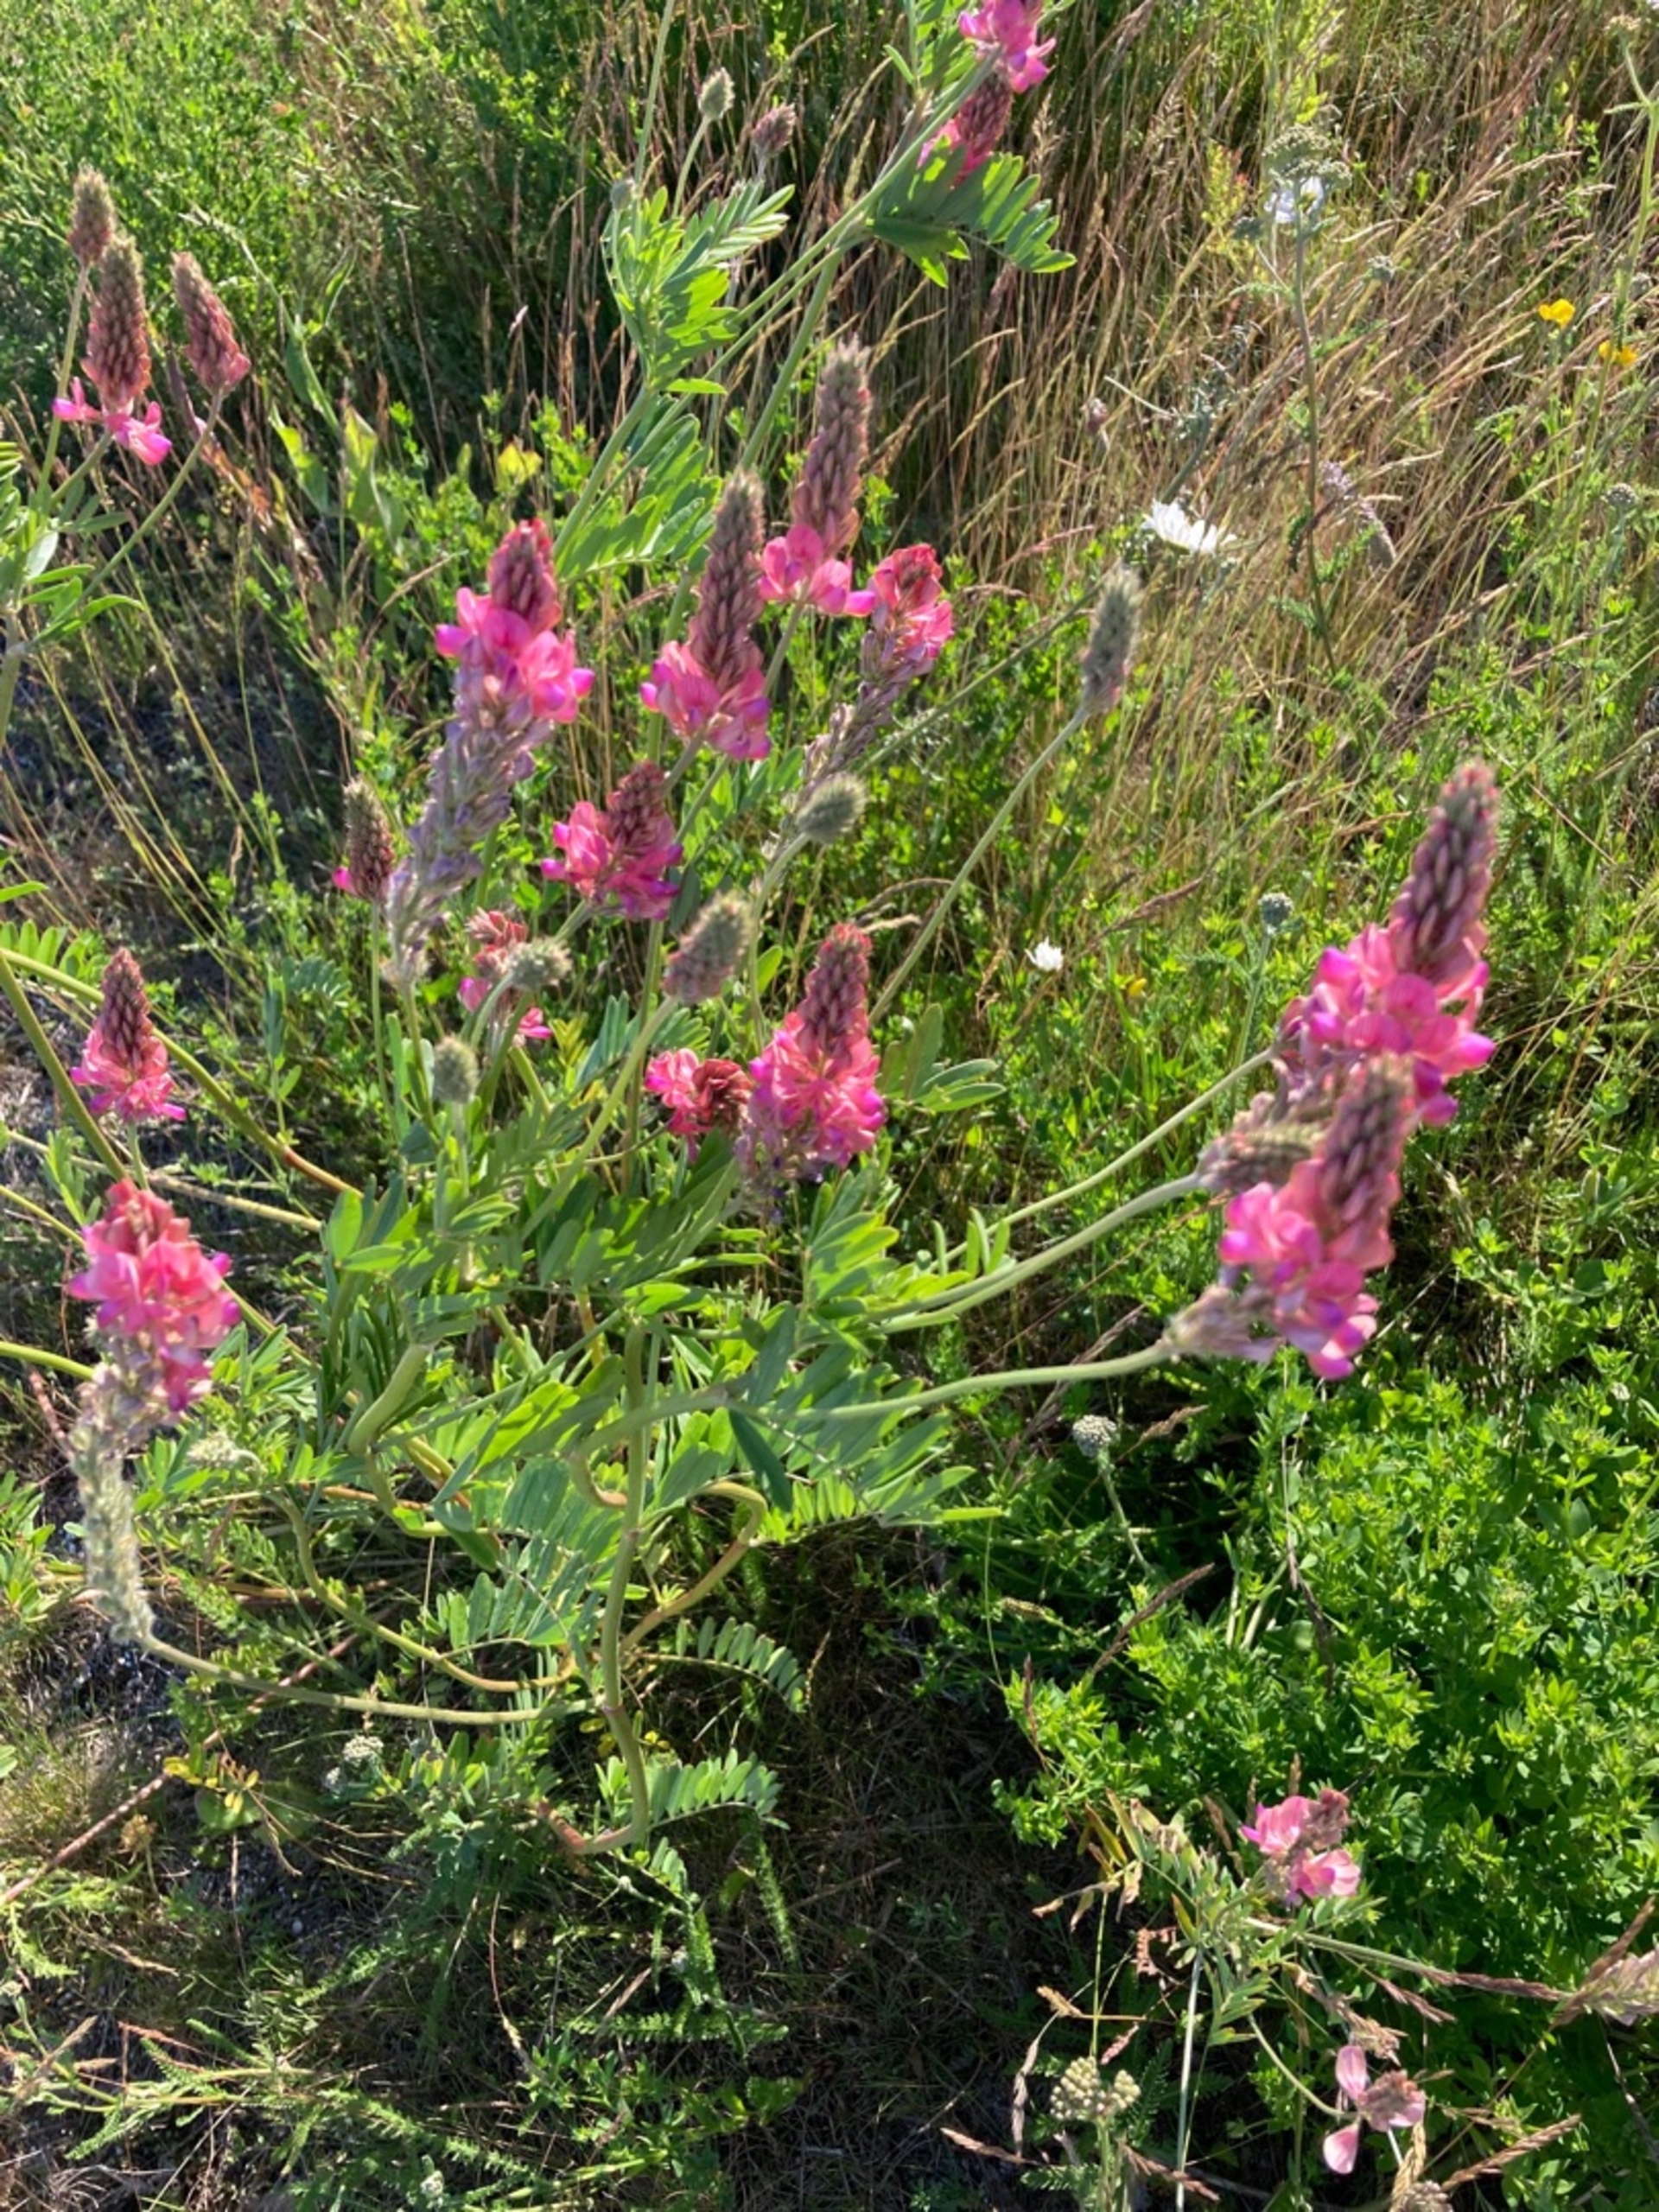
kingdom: Plantae
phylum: Tracheophyta
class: Magnoliopsida
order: Fabales
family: Fabaceae
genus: Onobrychis
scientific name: Onobrychis viciifolia
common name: Esparsette
